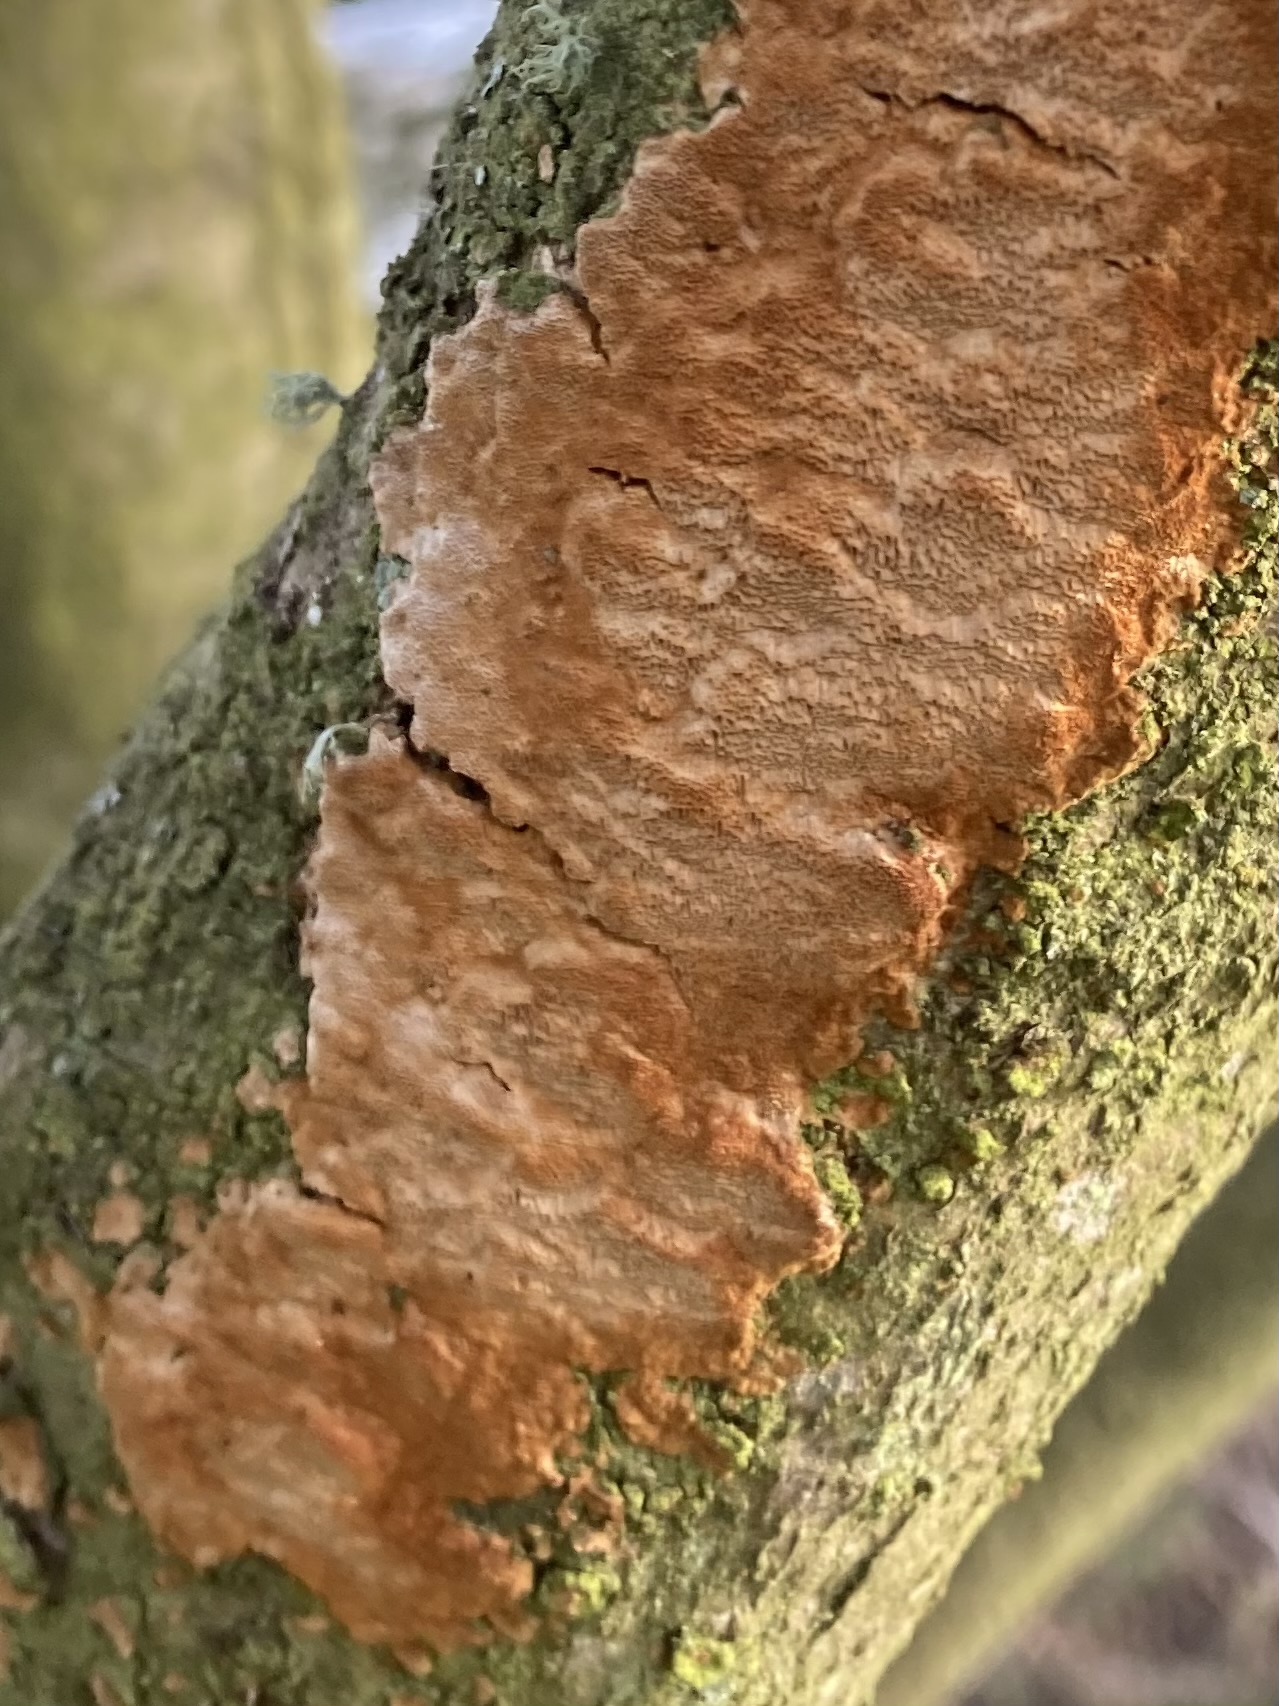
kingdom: Fungi
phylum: Basidiomycota
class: Agaricomycetes
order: Hymenochaetales
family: Hymenochaetaceae
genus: Fuscoporia
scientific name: Fuscoporia ferrea
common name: skorpe-ildporesvamp
